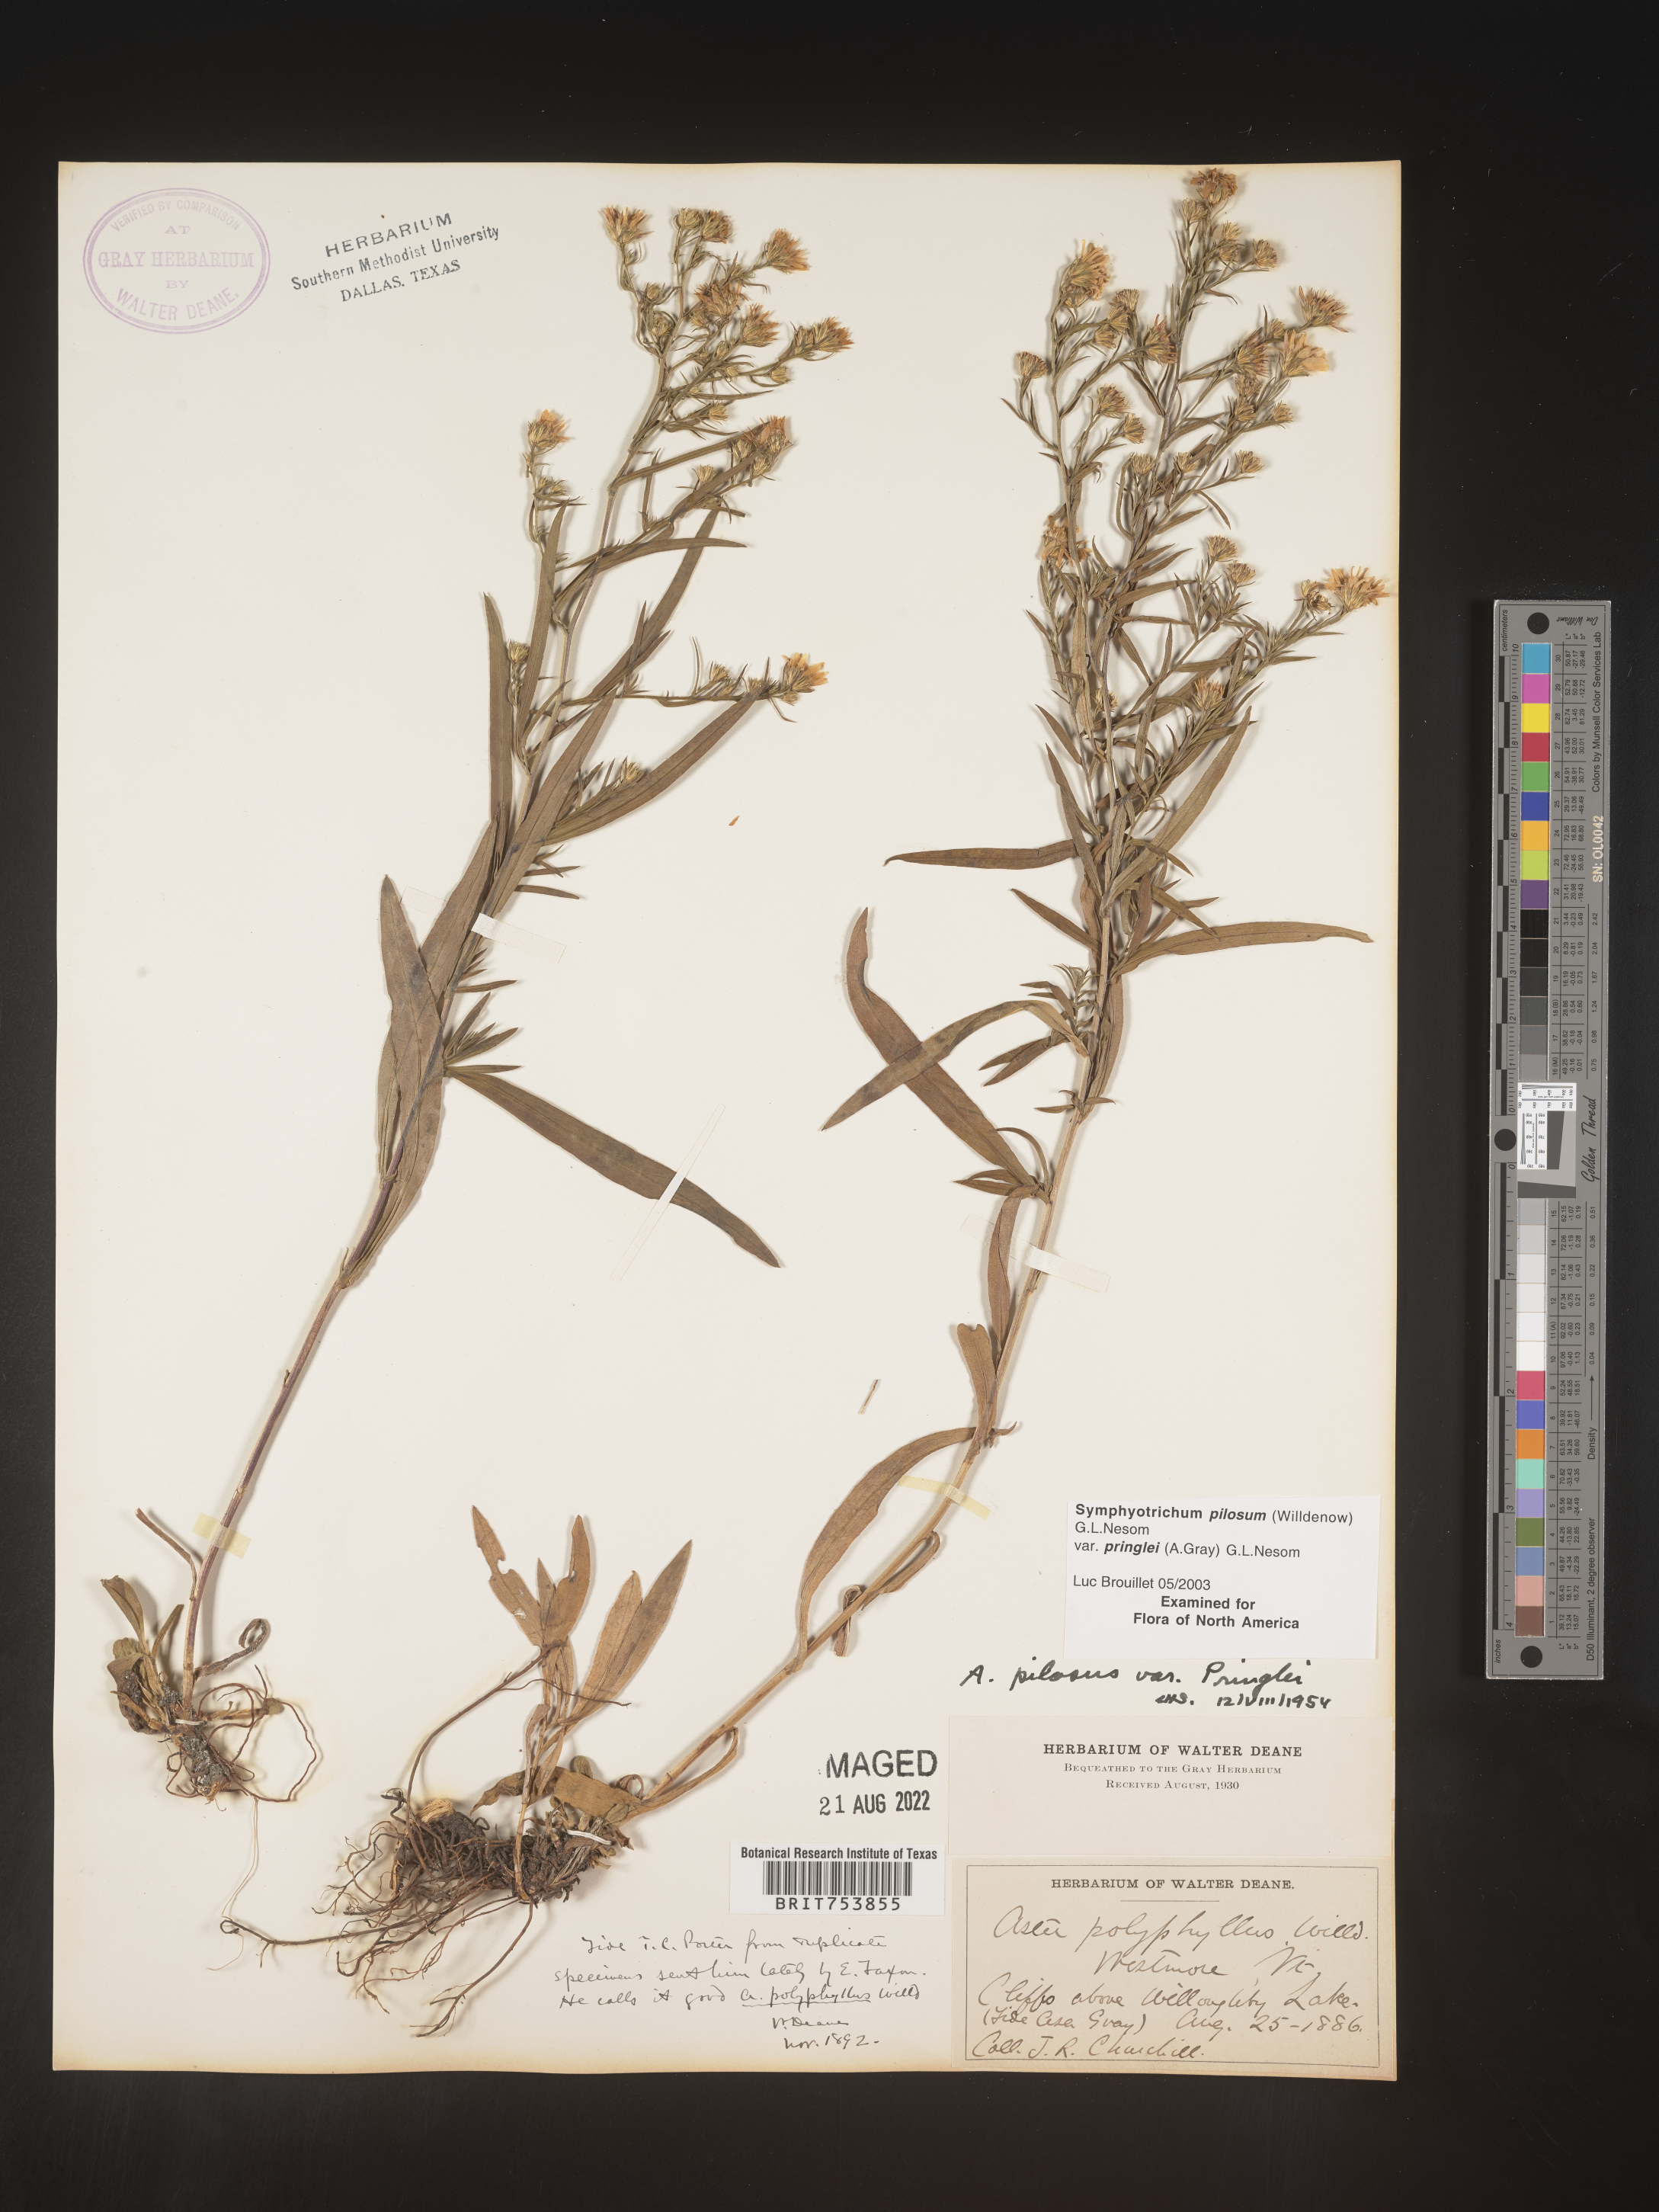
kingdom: Plantae
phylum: Tracheophyta
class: Magnoliopsida
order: Asterales
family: Asteraceae
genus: Symphyotrichum
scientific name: Symphyotrichum pilosum
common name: Awl aster
